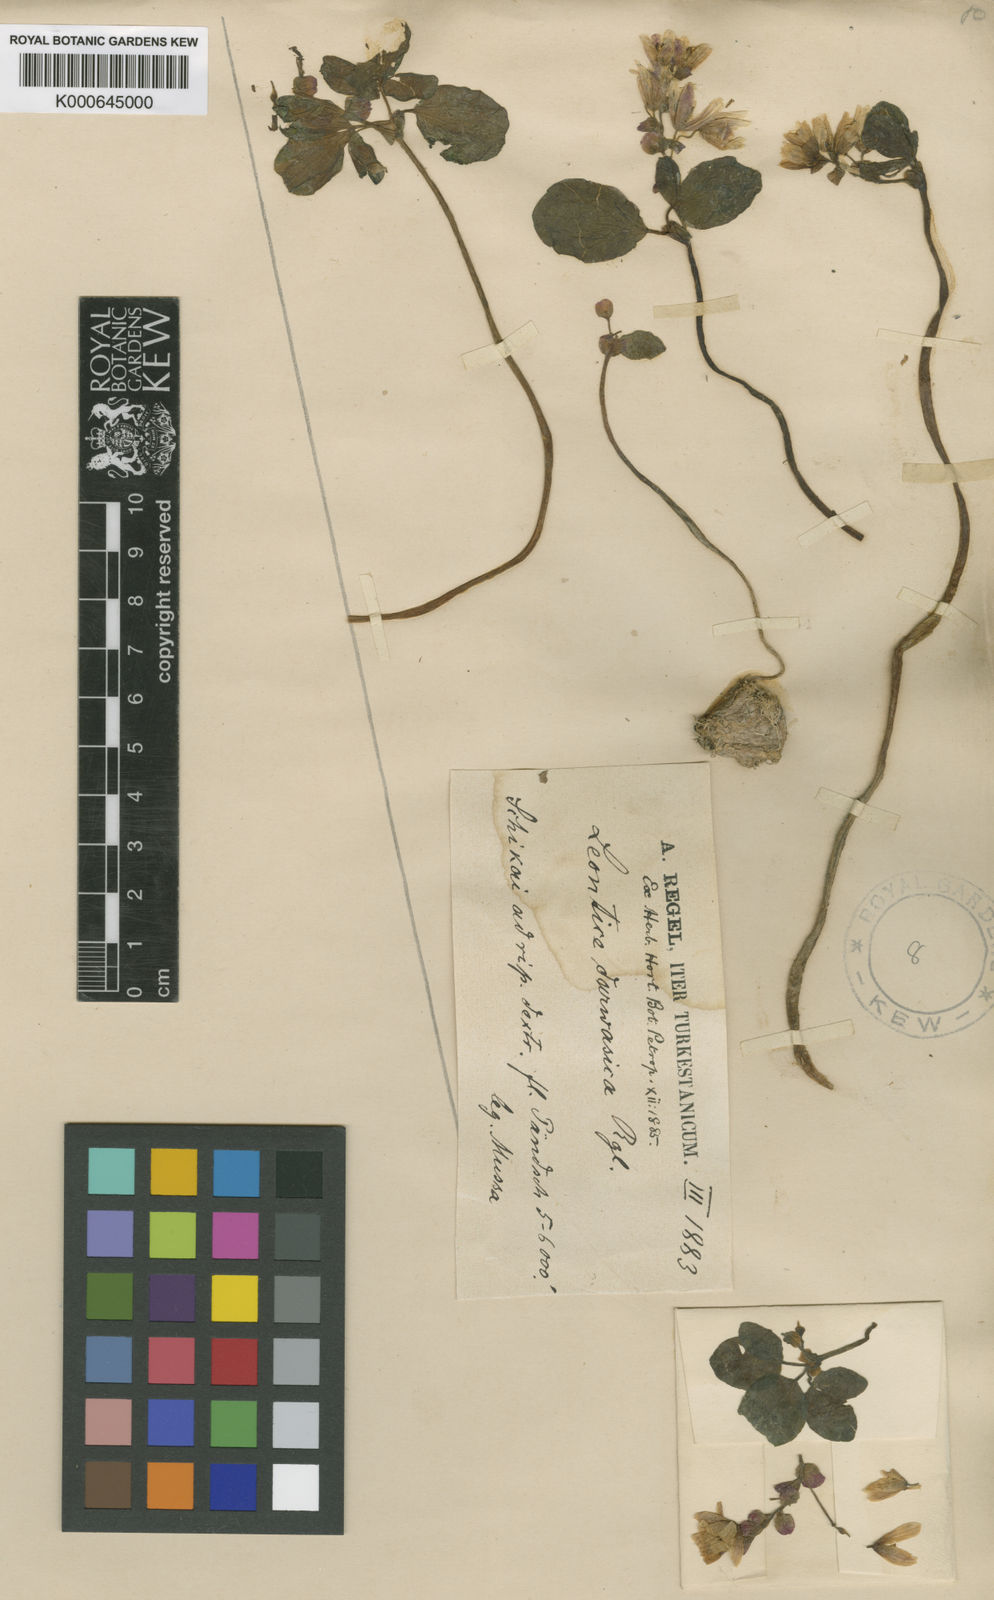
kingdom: Plantae
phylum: Tracheophyta
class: Magnoliopsida
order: Ranunculales
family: Berberidaceae
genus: Gymnospermium
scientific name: Gymnospermium darwasicum
